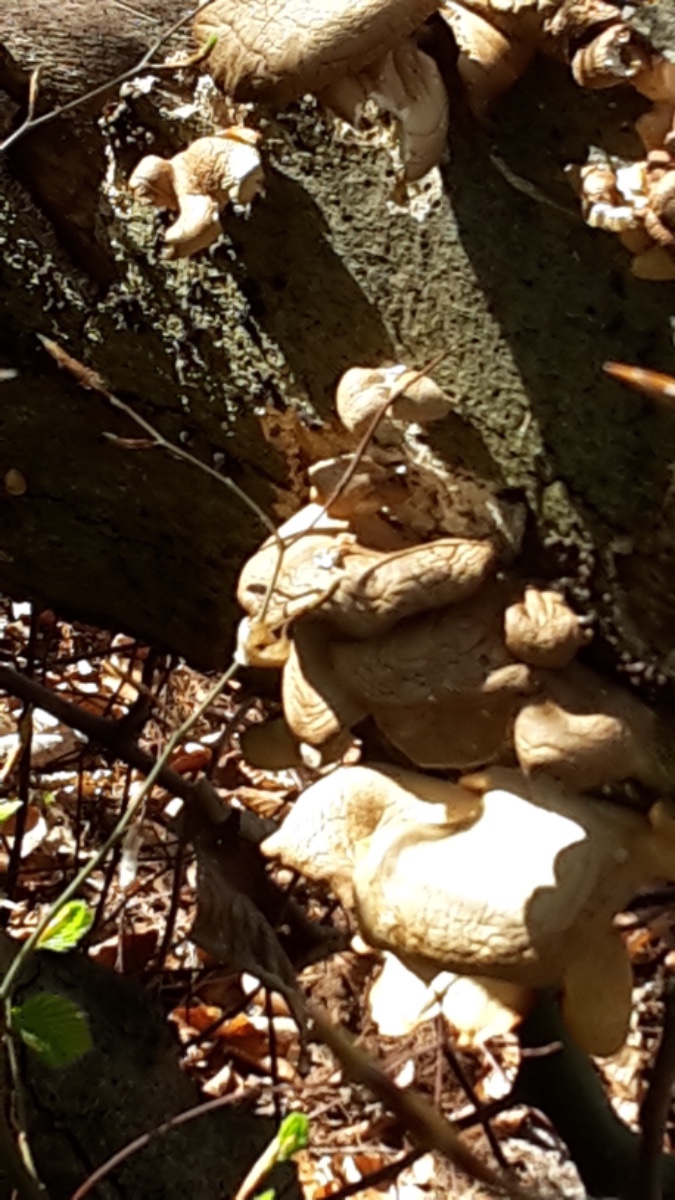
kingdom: Fungi
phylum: Basidiomycota
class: Agaricomycetes
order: Agaricales
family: Pleurotaceae
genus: Pleurotus
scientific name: Pleurotus ostreatus
